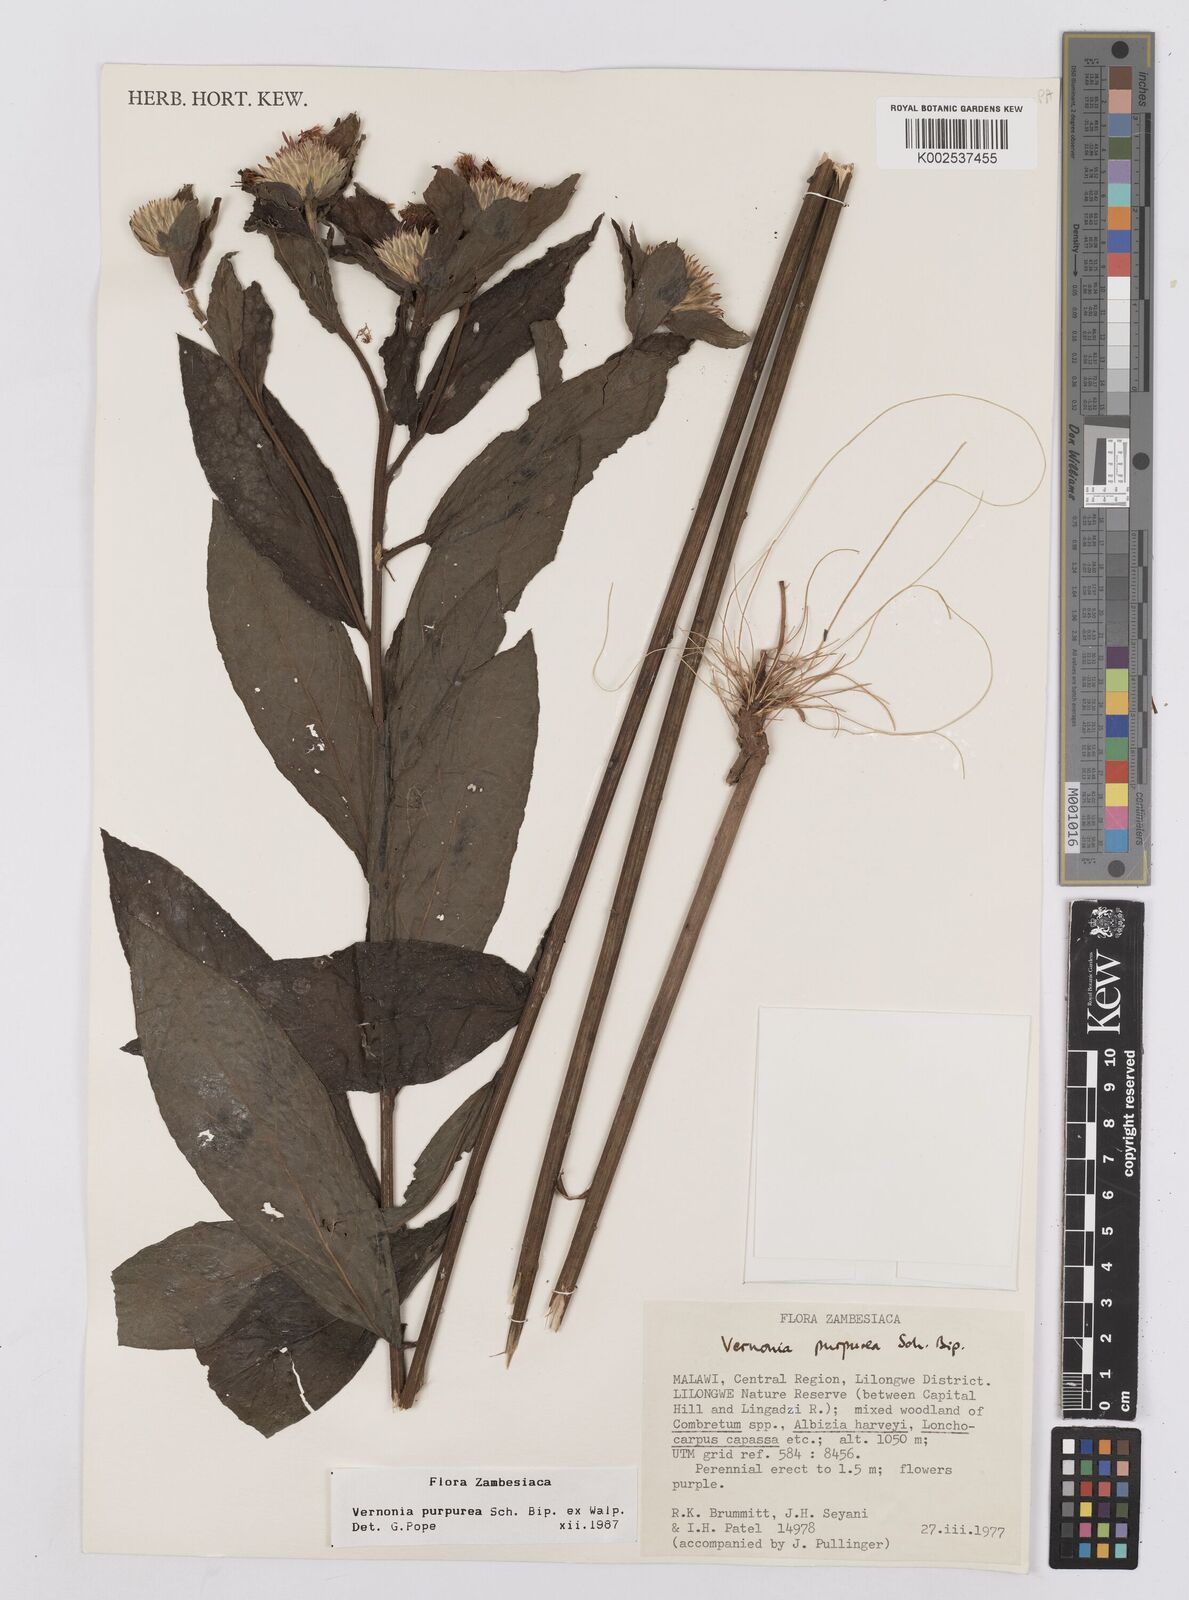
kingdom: Plantae
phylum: Tracheophyta
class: Magnoliopsida
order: Asterales
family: Asteraceae
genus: Nothovernonia
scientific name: Nothovernonia purpurea
